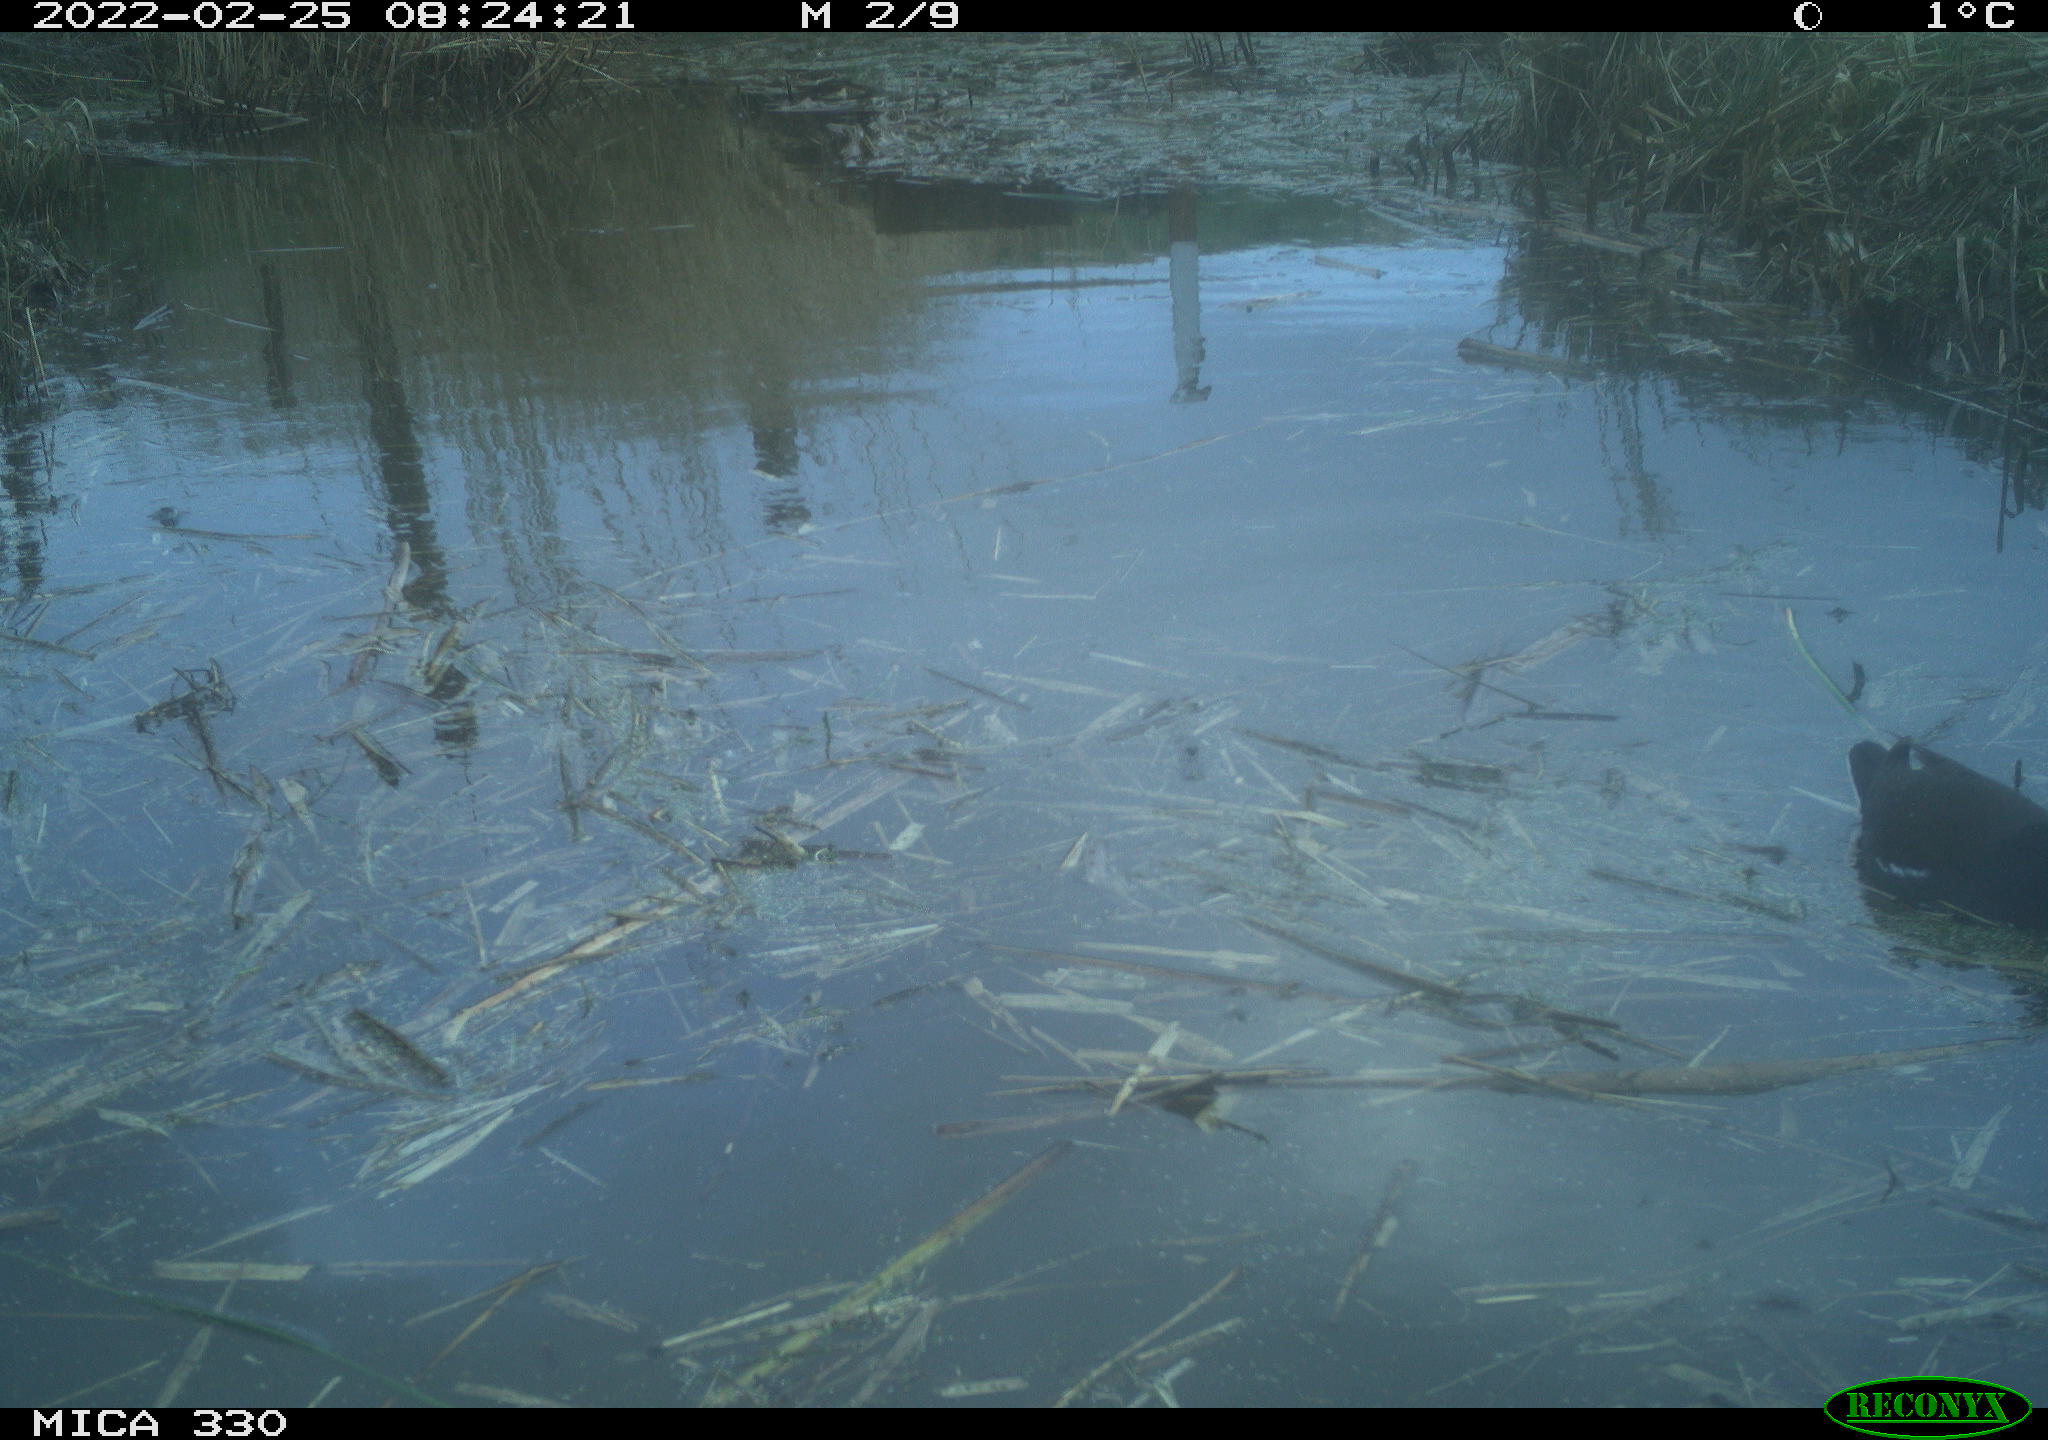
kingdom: Animalia
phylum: Chordata
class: Aves
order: Gruiformes
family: Rallidae
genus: Gallinula
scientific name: Gallinula chloropus
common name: Common moorhen
